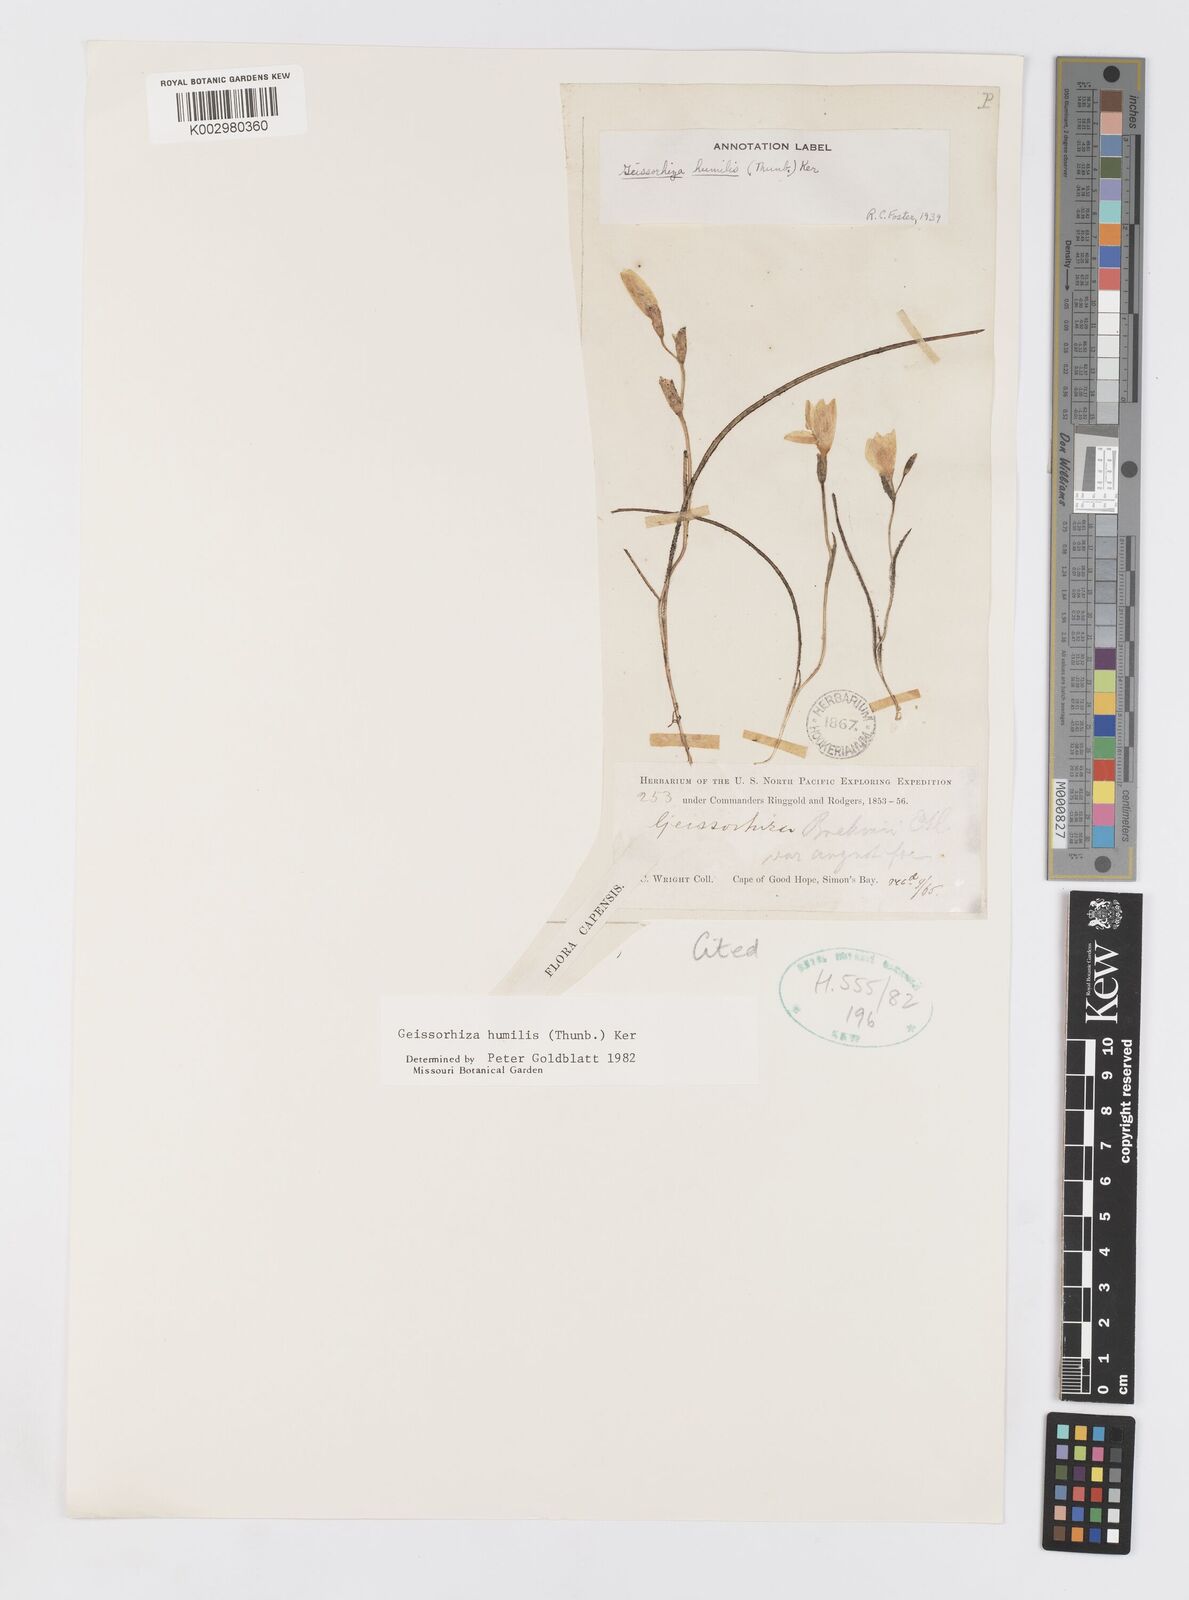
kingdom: Plantae
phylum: Tracheophyta
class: Liliopsida
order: Asparagales
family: Iridaceae
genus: Geissorhiza
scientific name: Geissorhiza humilis
